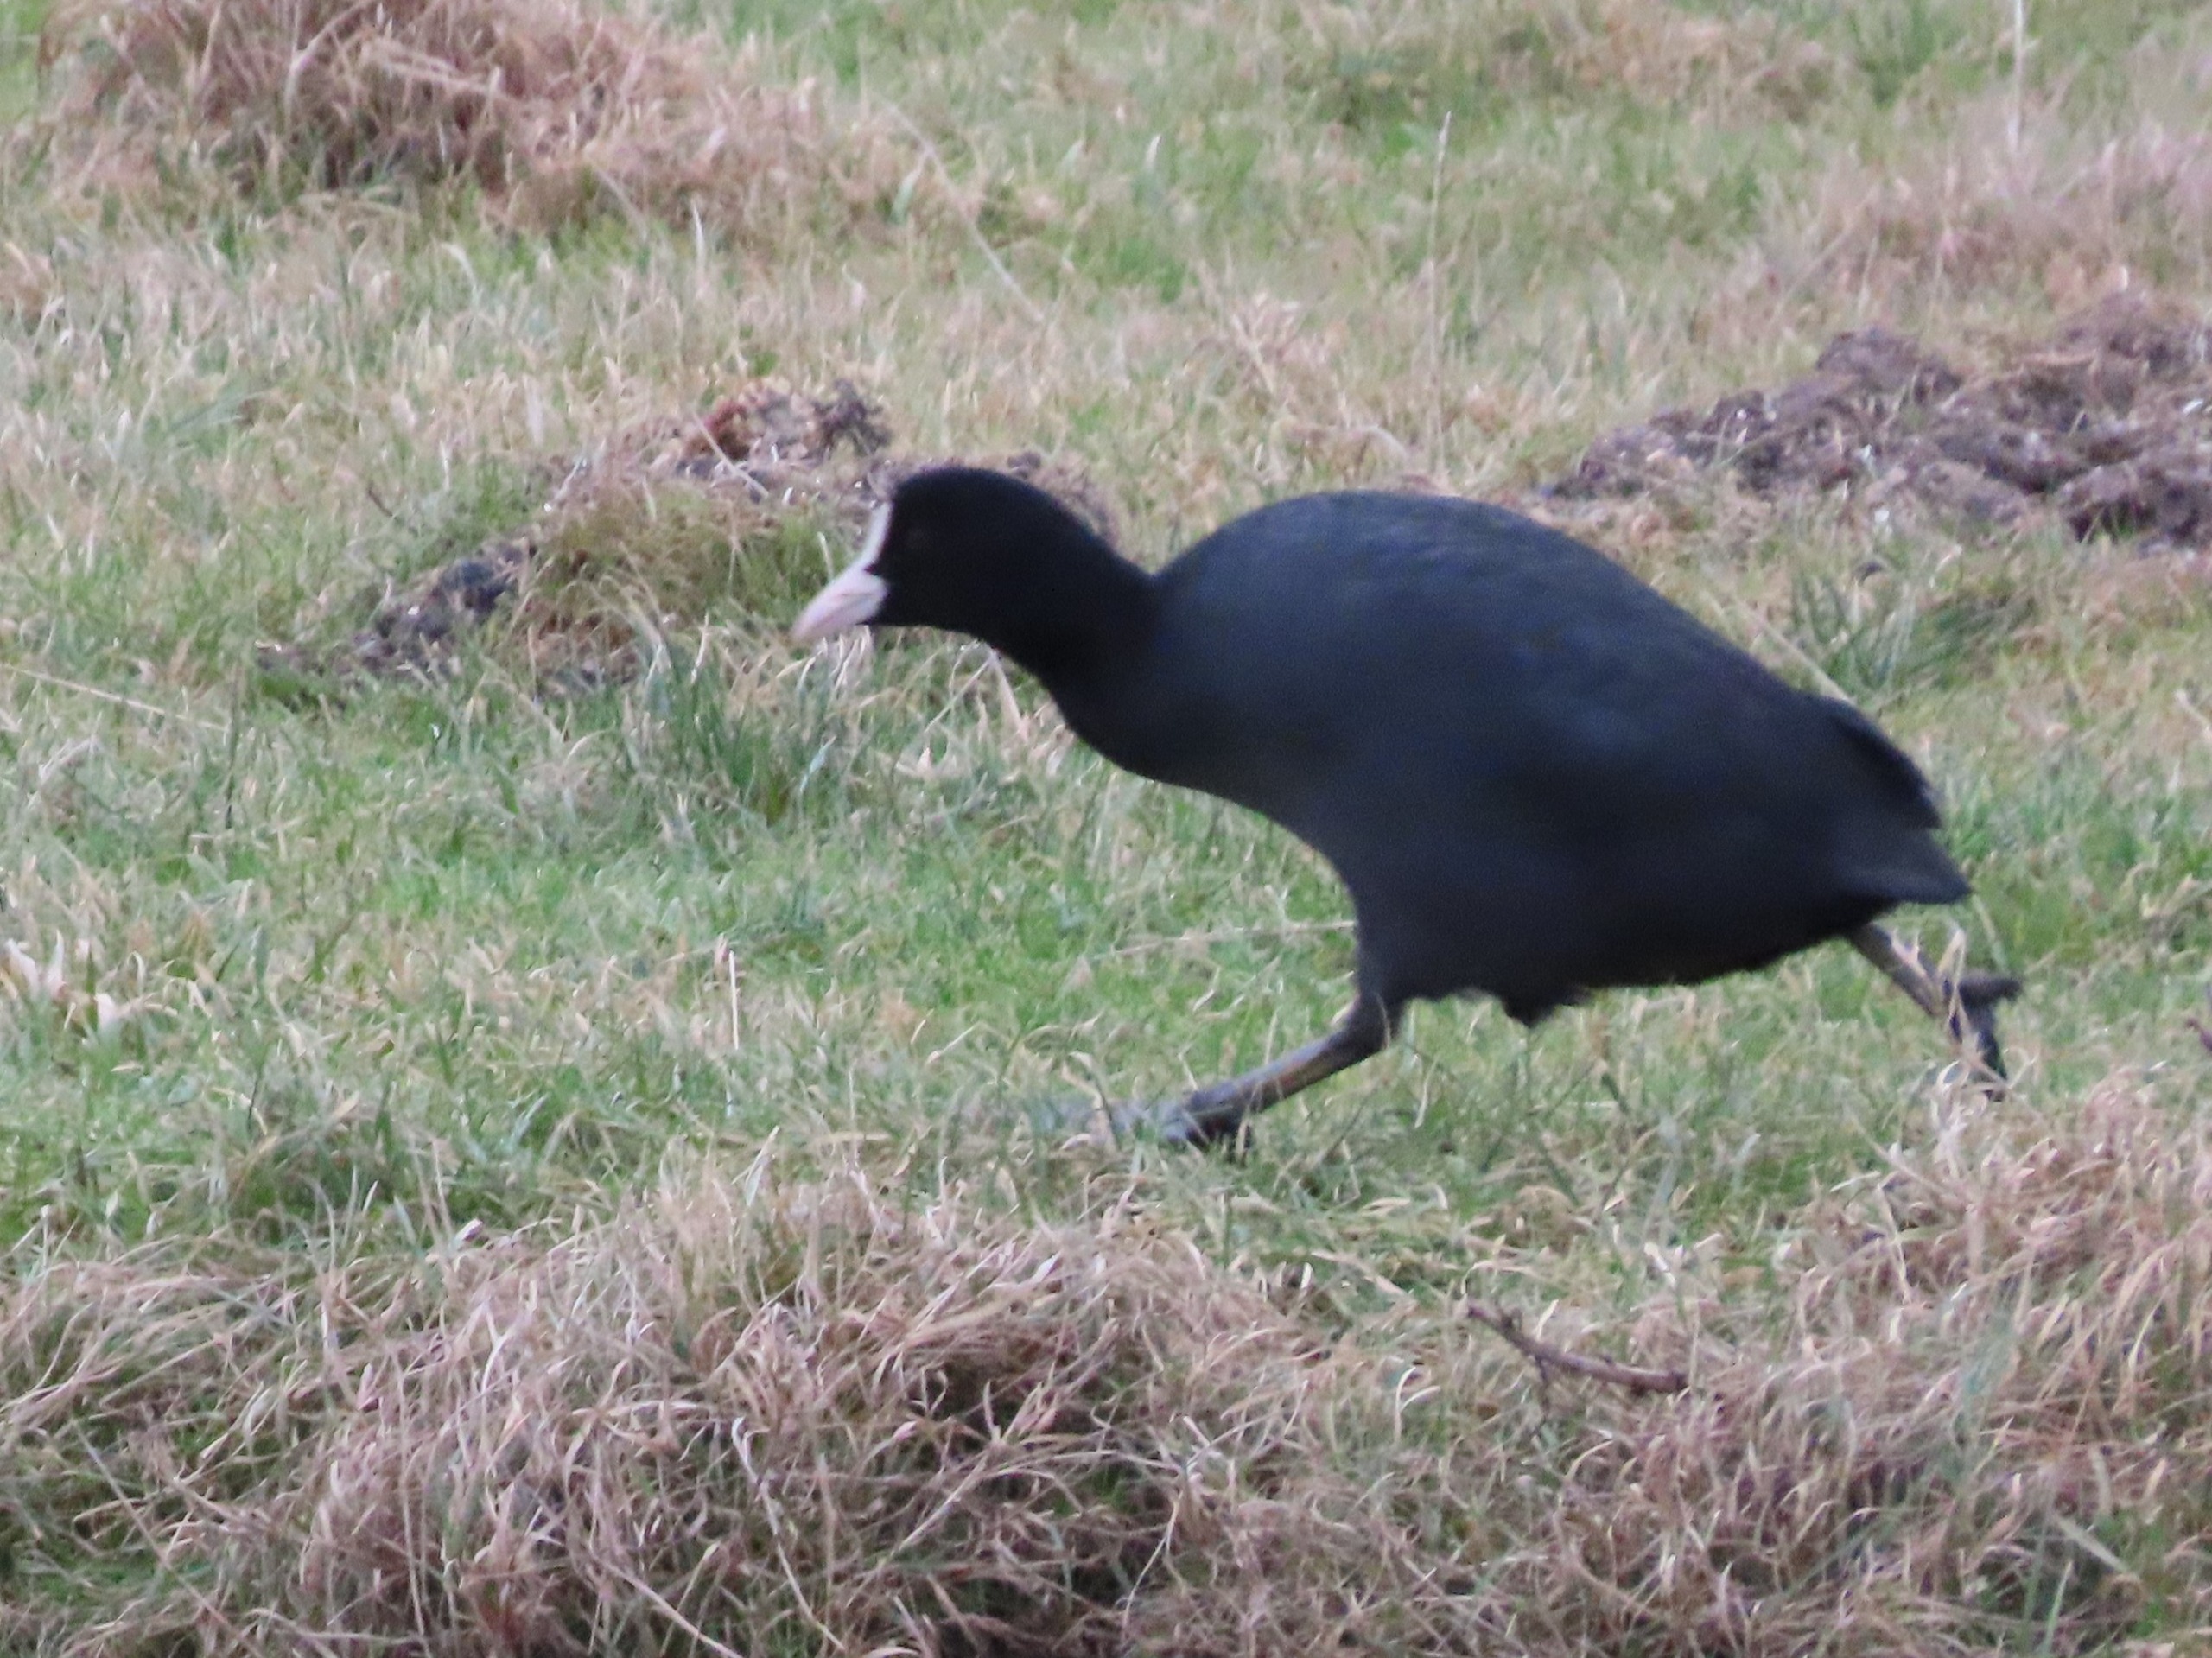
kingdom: Animalia
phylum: Chordata
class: Aves
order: Gruiformes
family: Rallidae
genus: Fulica
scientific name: Fulica atra
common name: Blishøne
